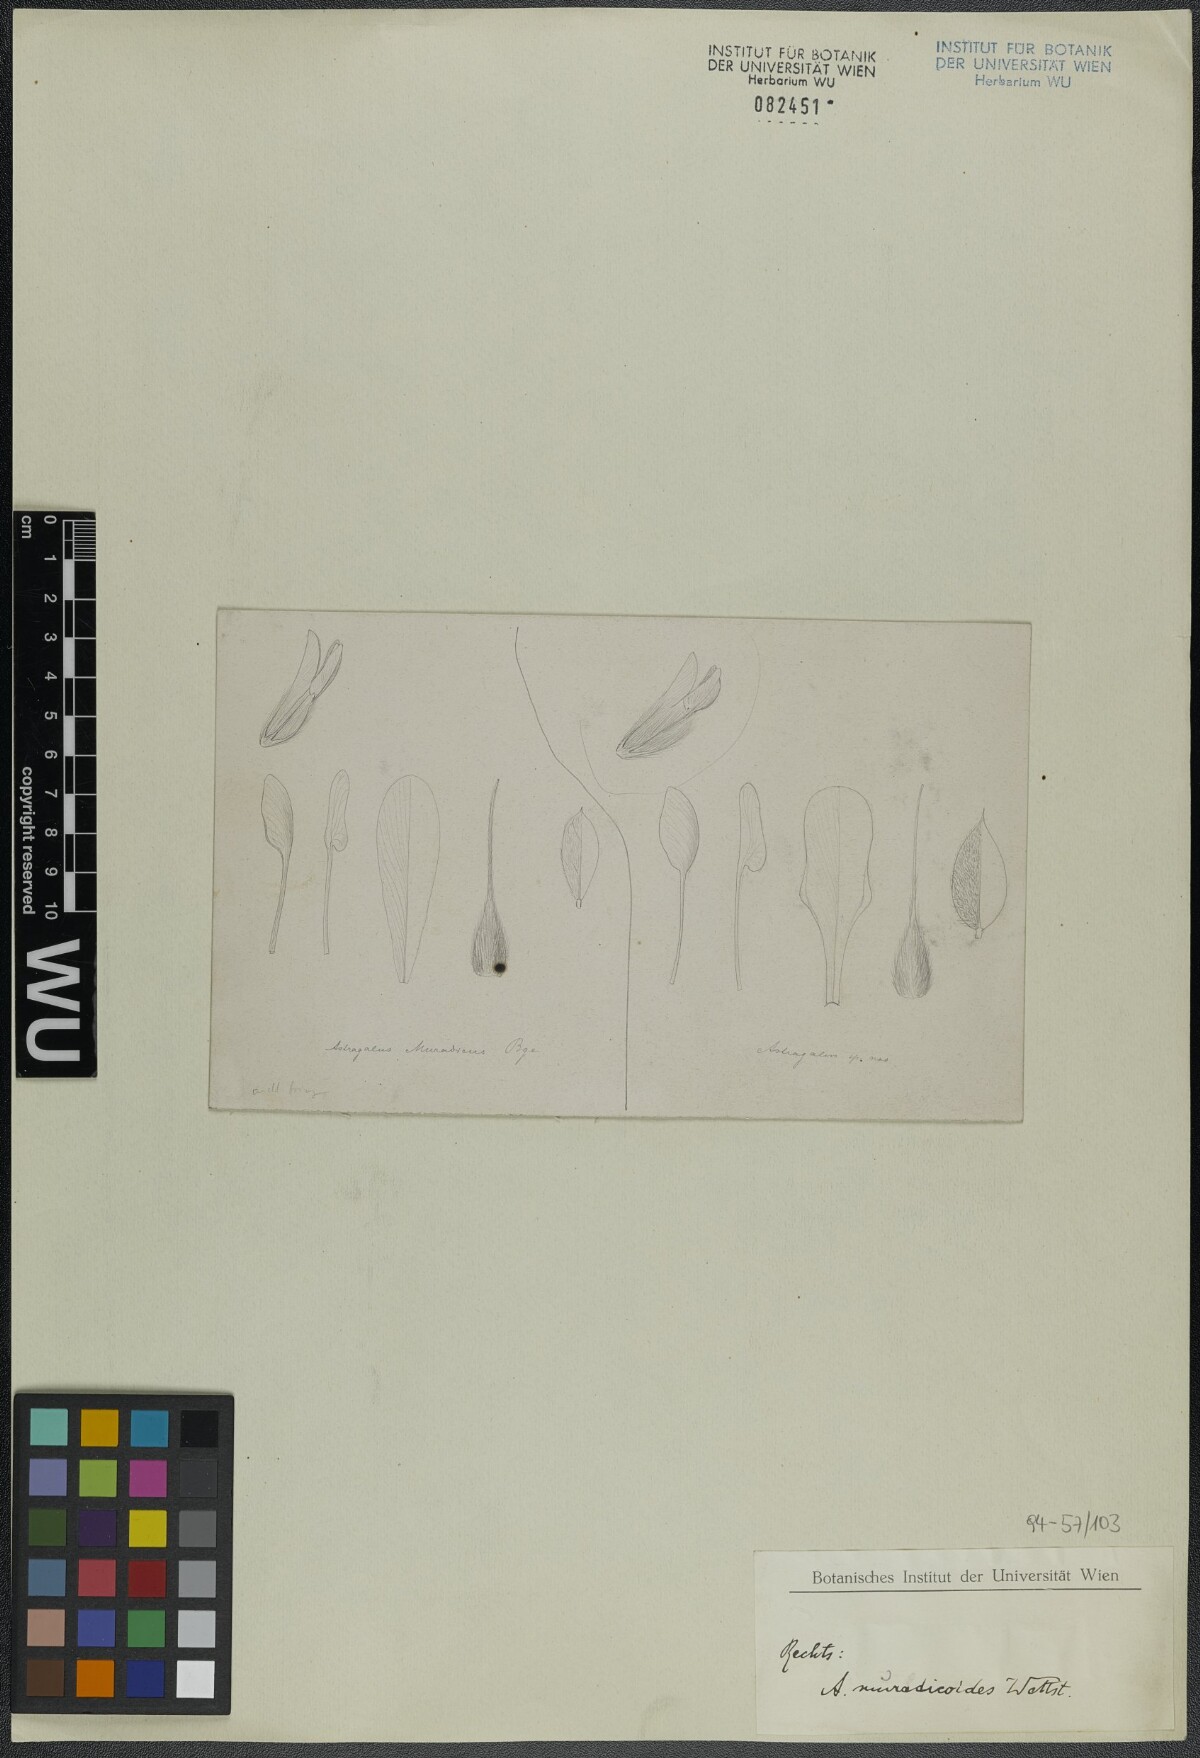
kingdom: Plantae
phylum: Tracheophyta
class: Magnoliopsida
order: Fabales
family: Fabaceae
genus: Astragalus
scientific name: Astragalus tmoleus
